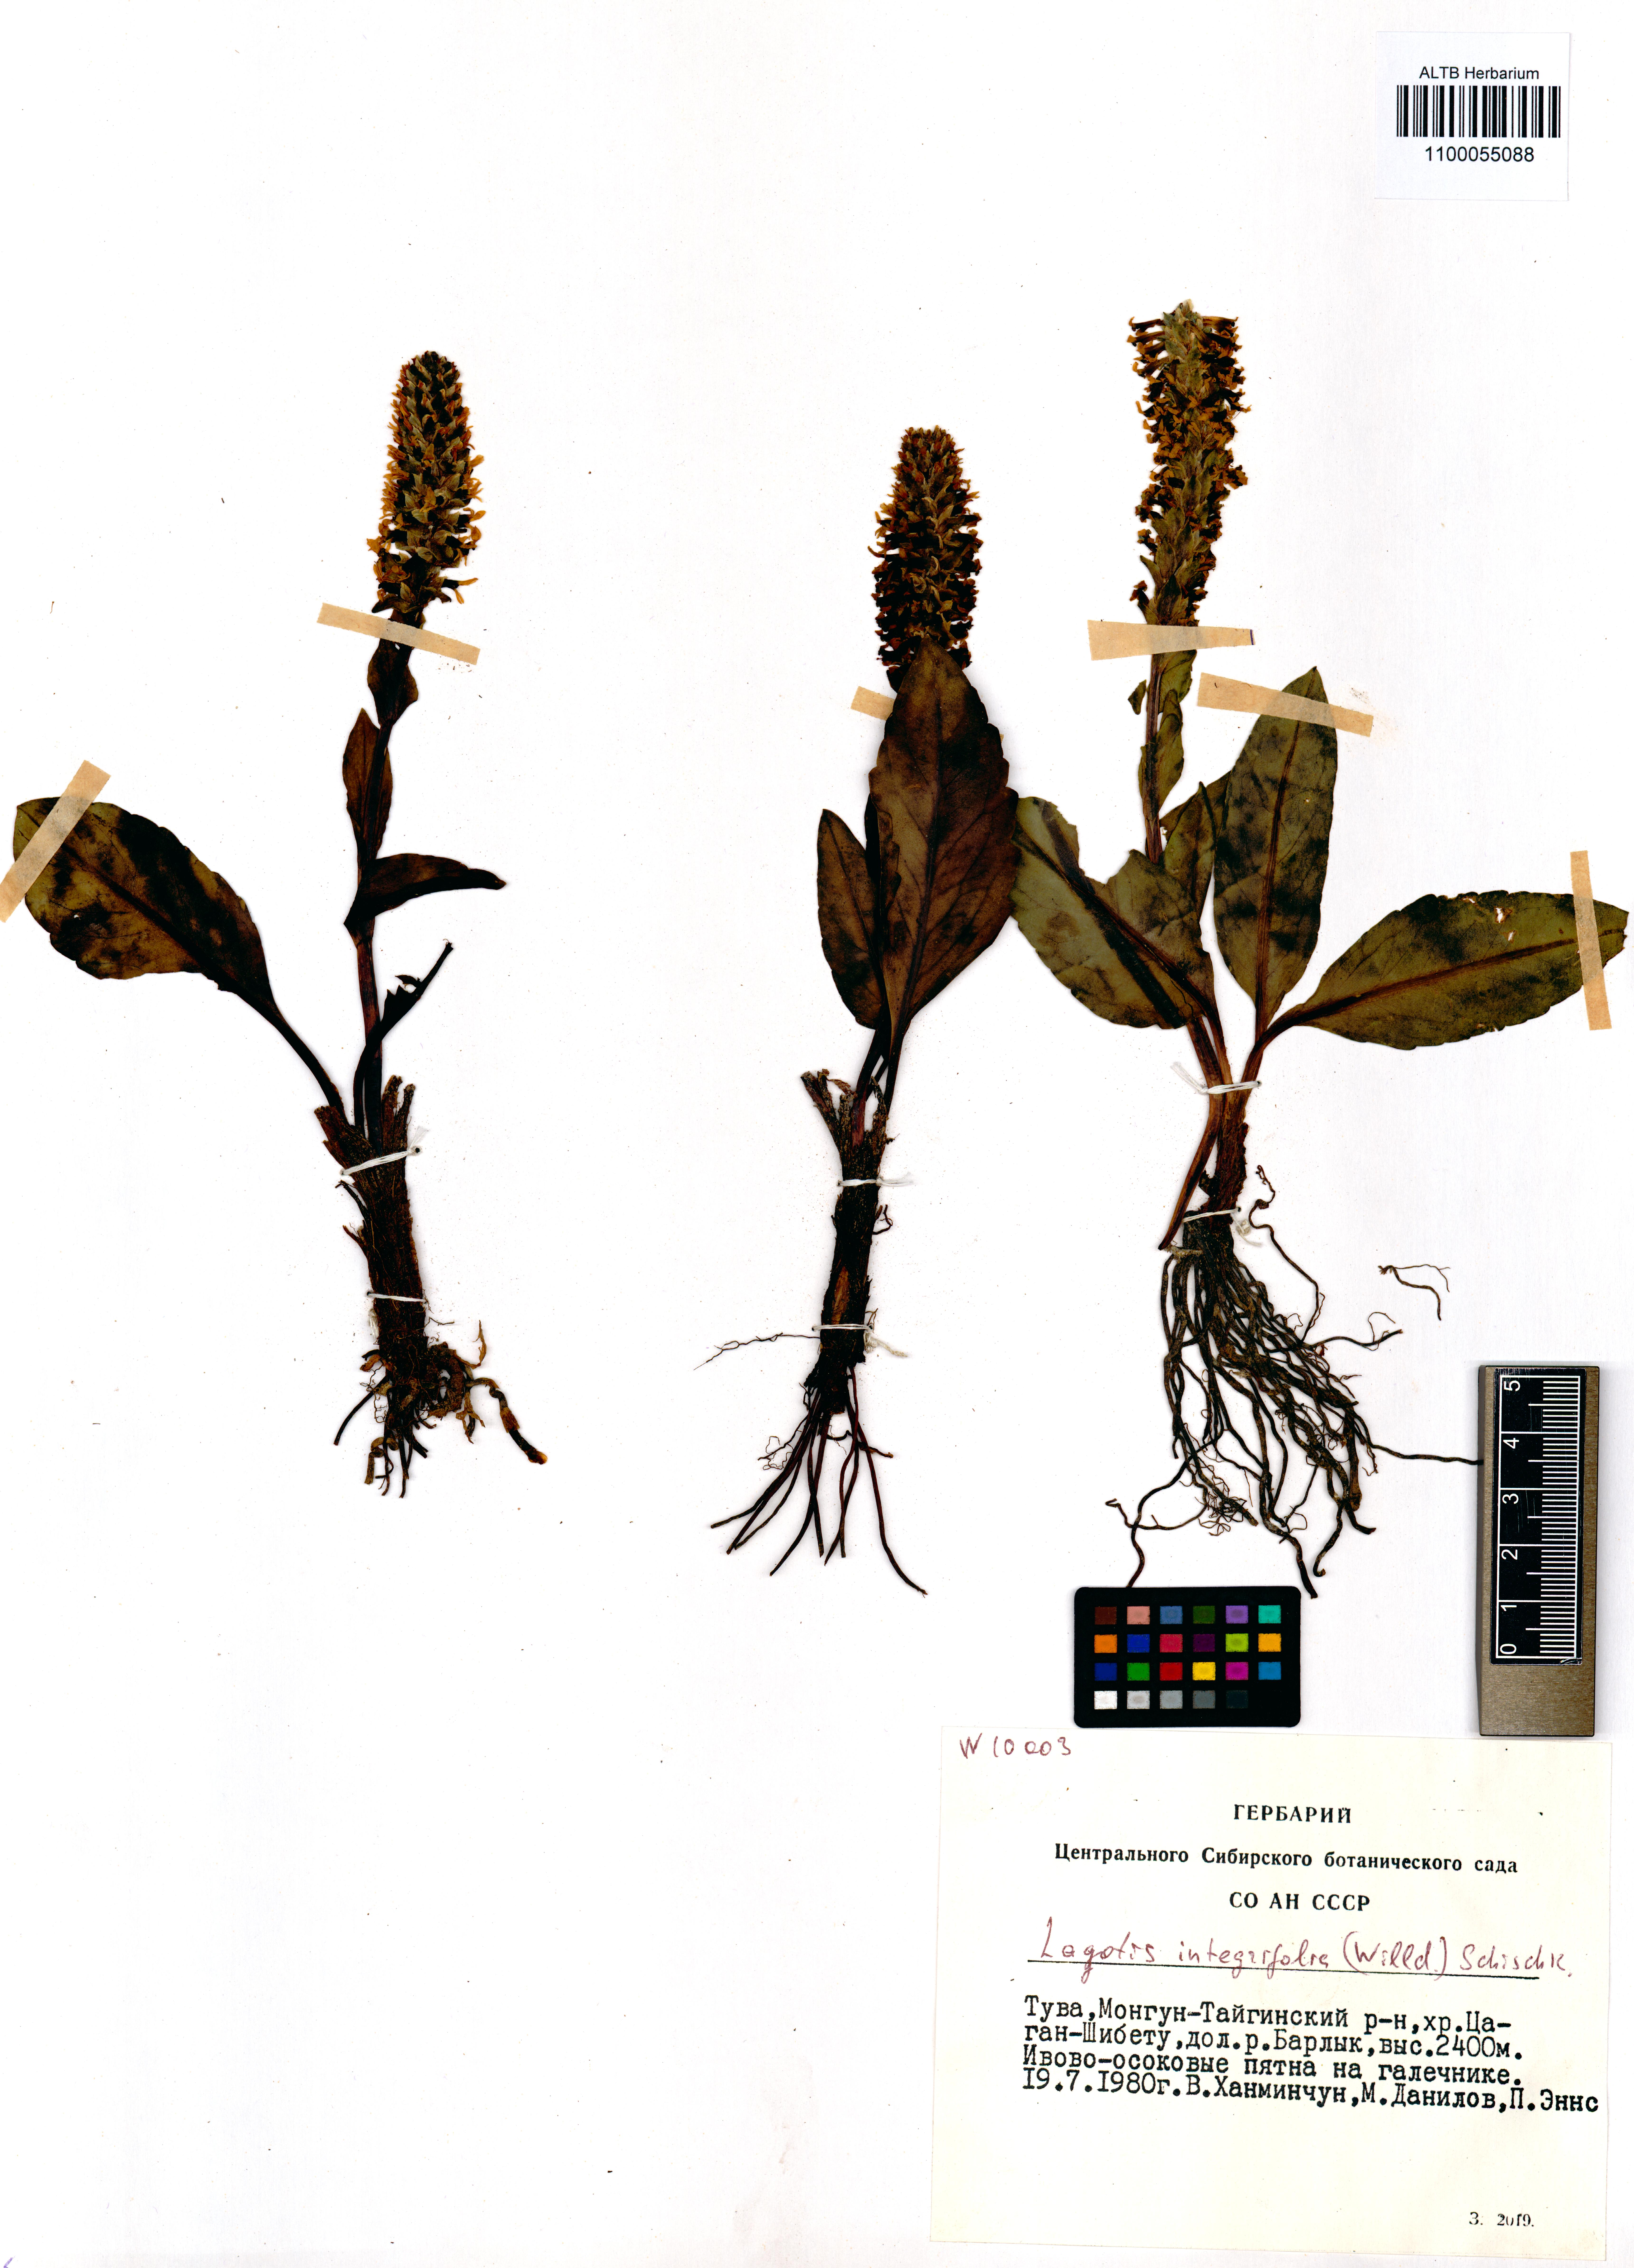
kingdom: Plantae
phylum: Tracheophyta
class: Magnoliopsida
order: Lamiales
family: Plantaginaceae
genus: Lagotis
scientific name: Lagotis integrifolia
